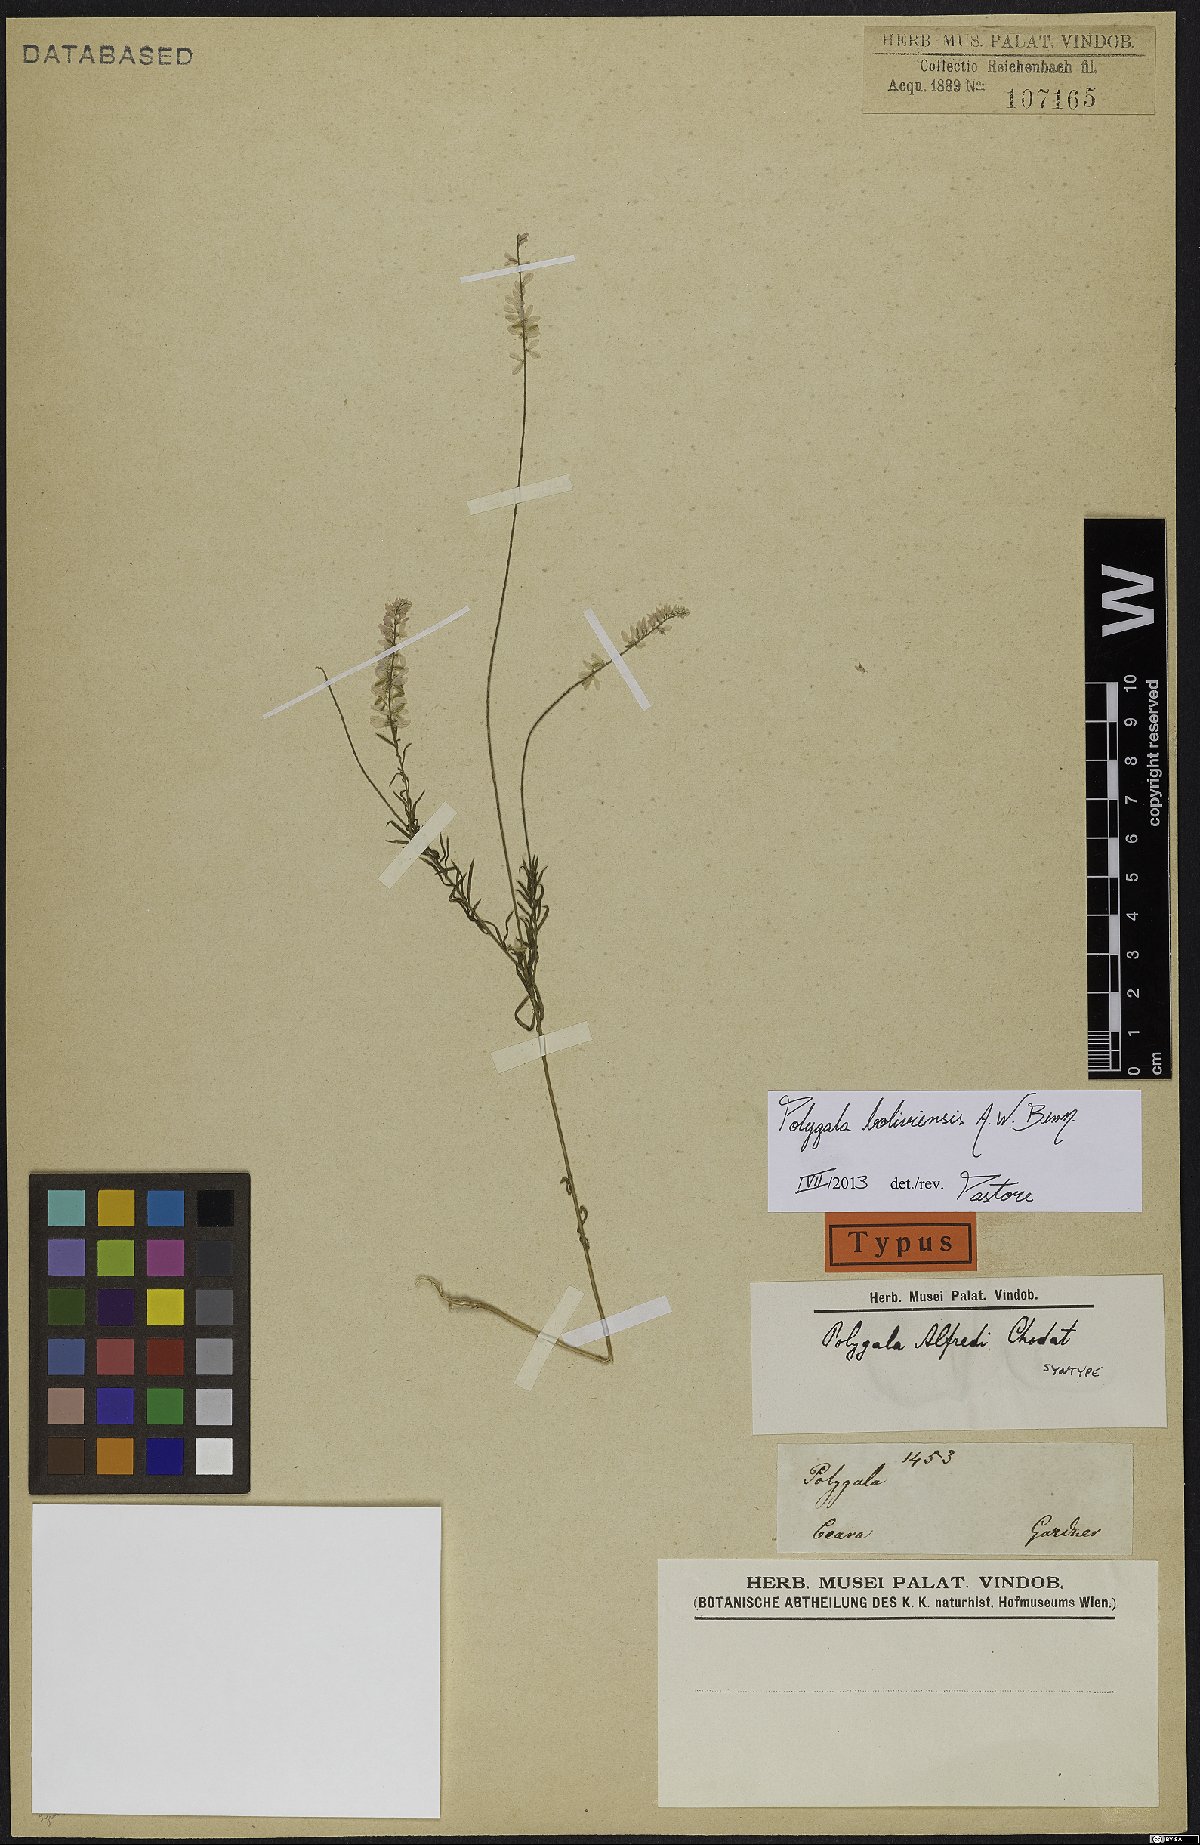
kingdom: Plantae
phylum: Tracheophyta
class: Magnoliopsida
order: Fabales
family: Polygalaceae
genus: Polygala
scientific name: Polygala boliviensis
